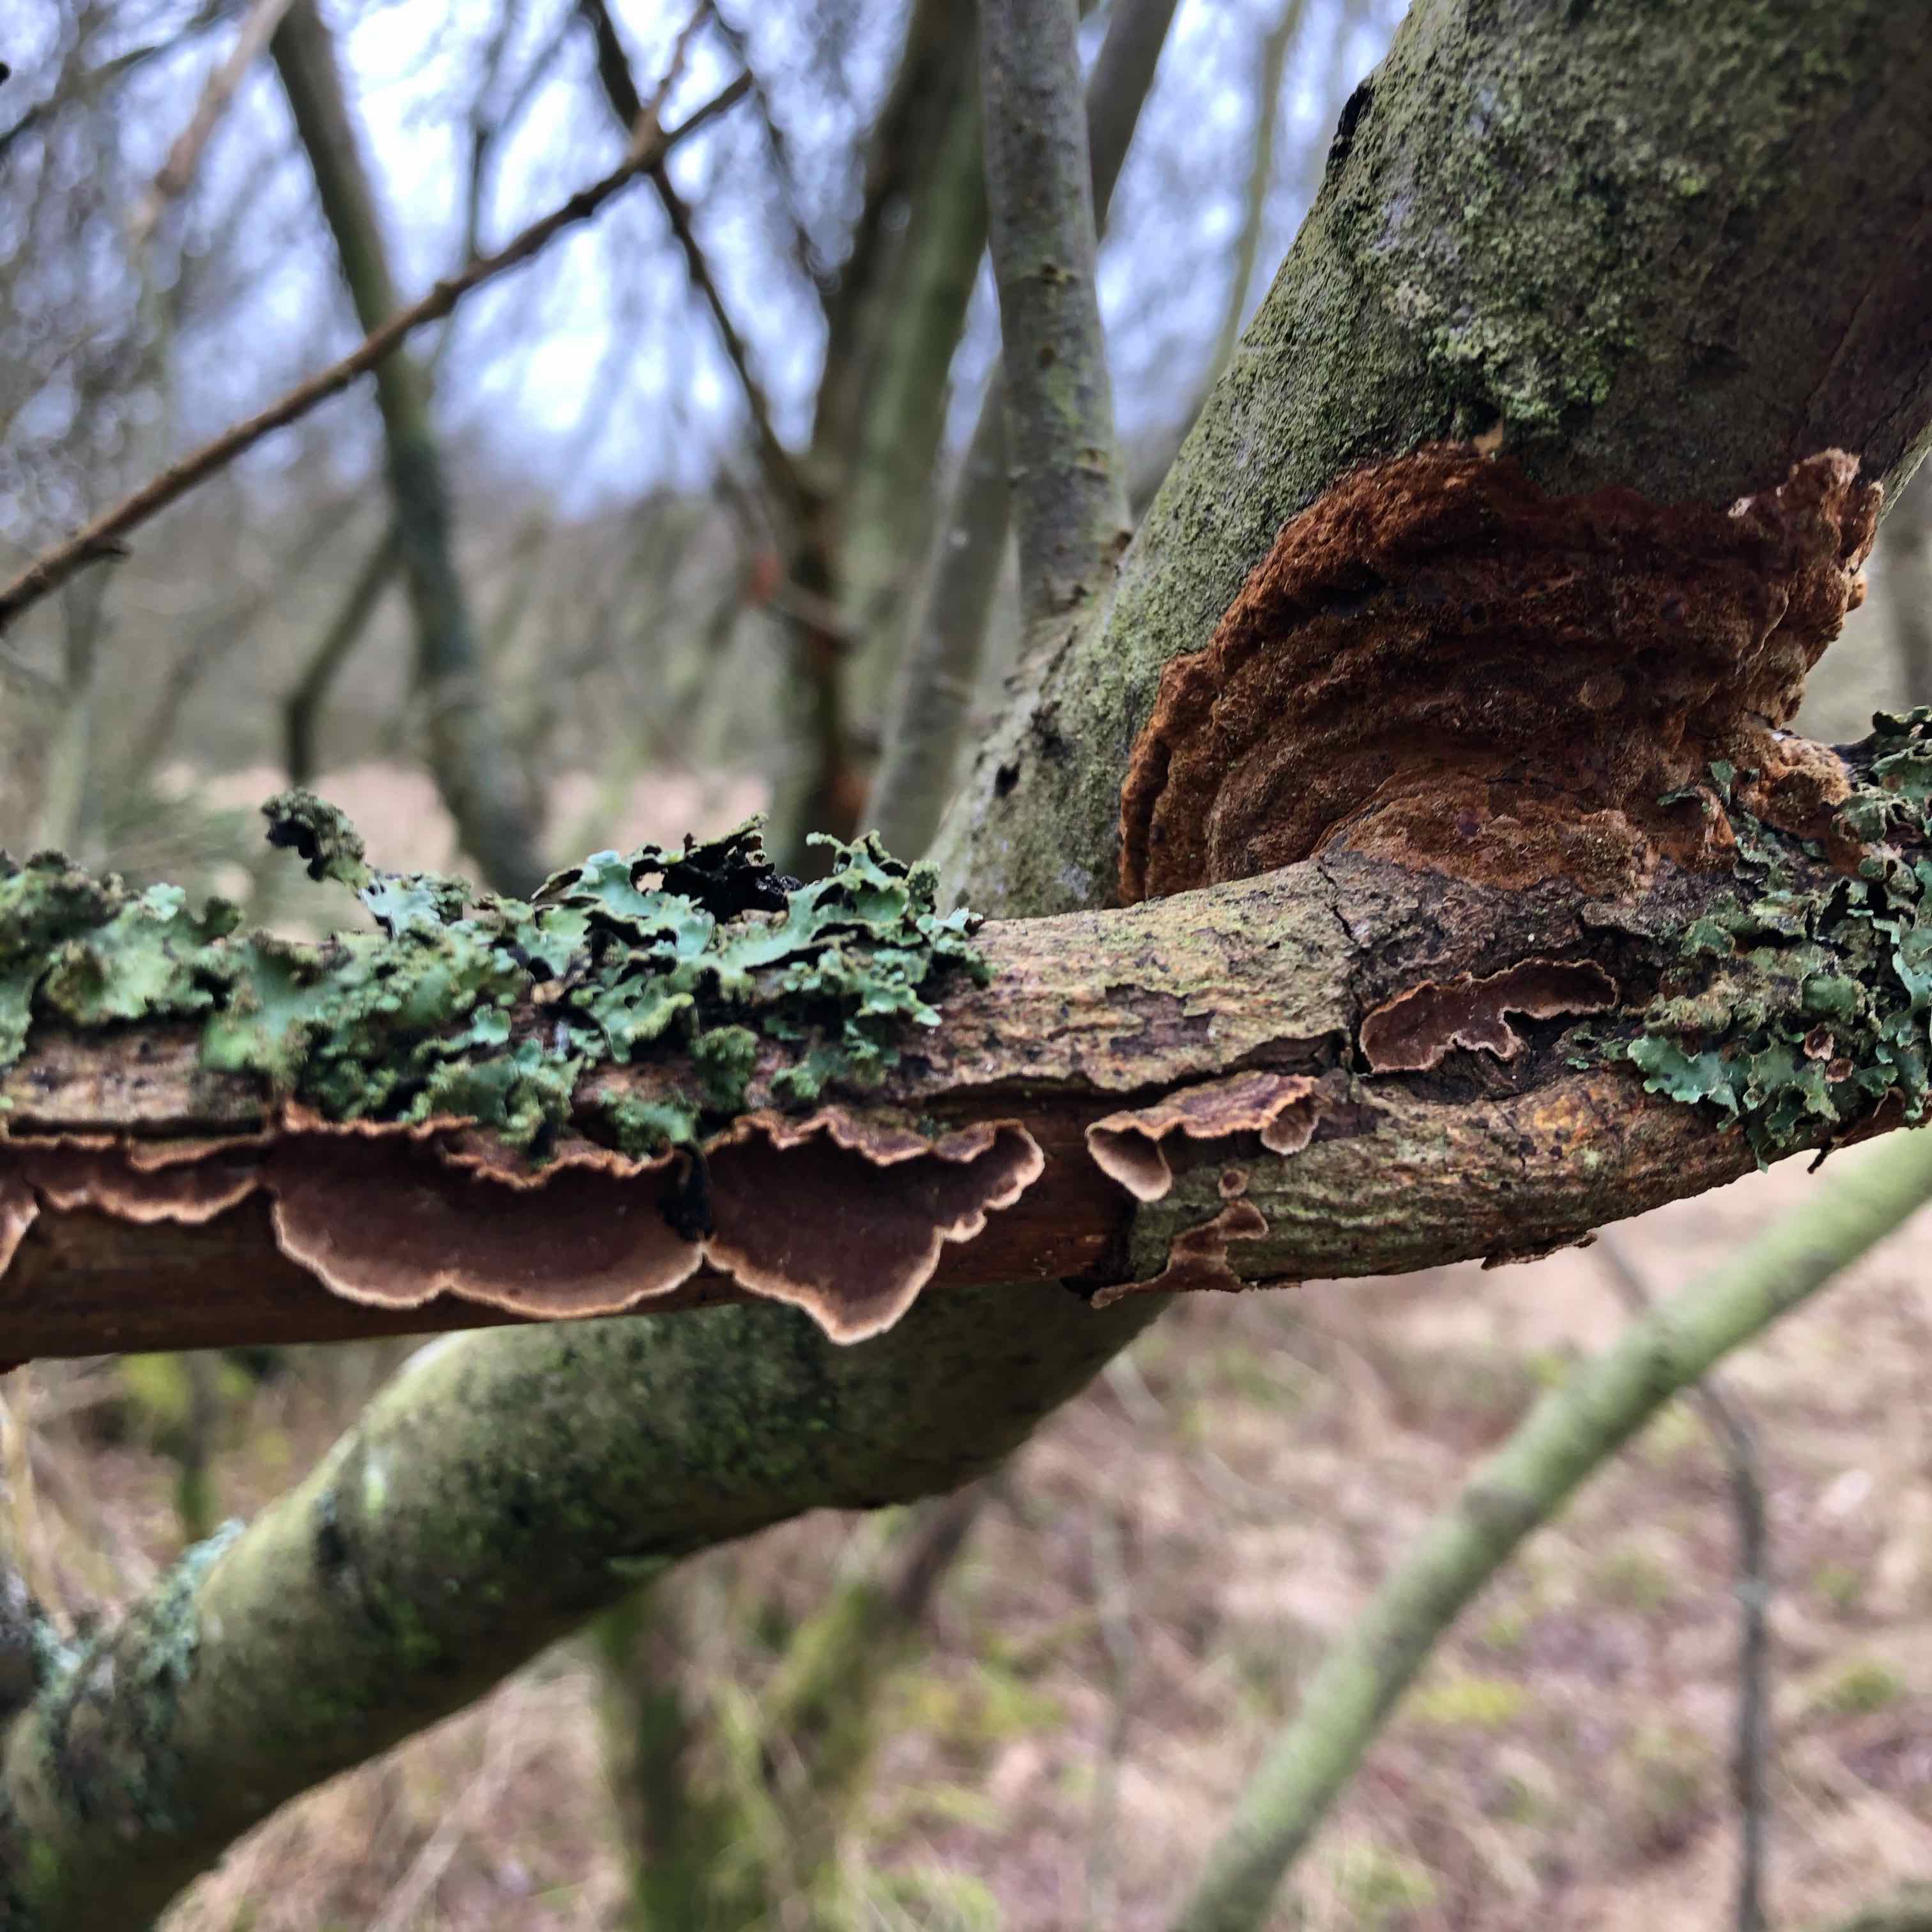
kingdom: Fungi
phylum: Basidiomycota
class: Agaricomycetes
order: Hymenochaetales
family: Hymenochaetaceae
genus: Hydnoporia
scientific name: Hydnoporia tabacina
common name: tobaksbrun ruslædersvamp
